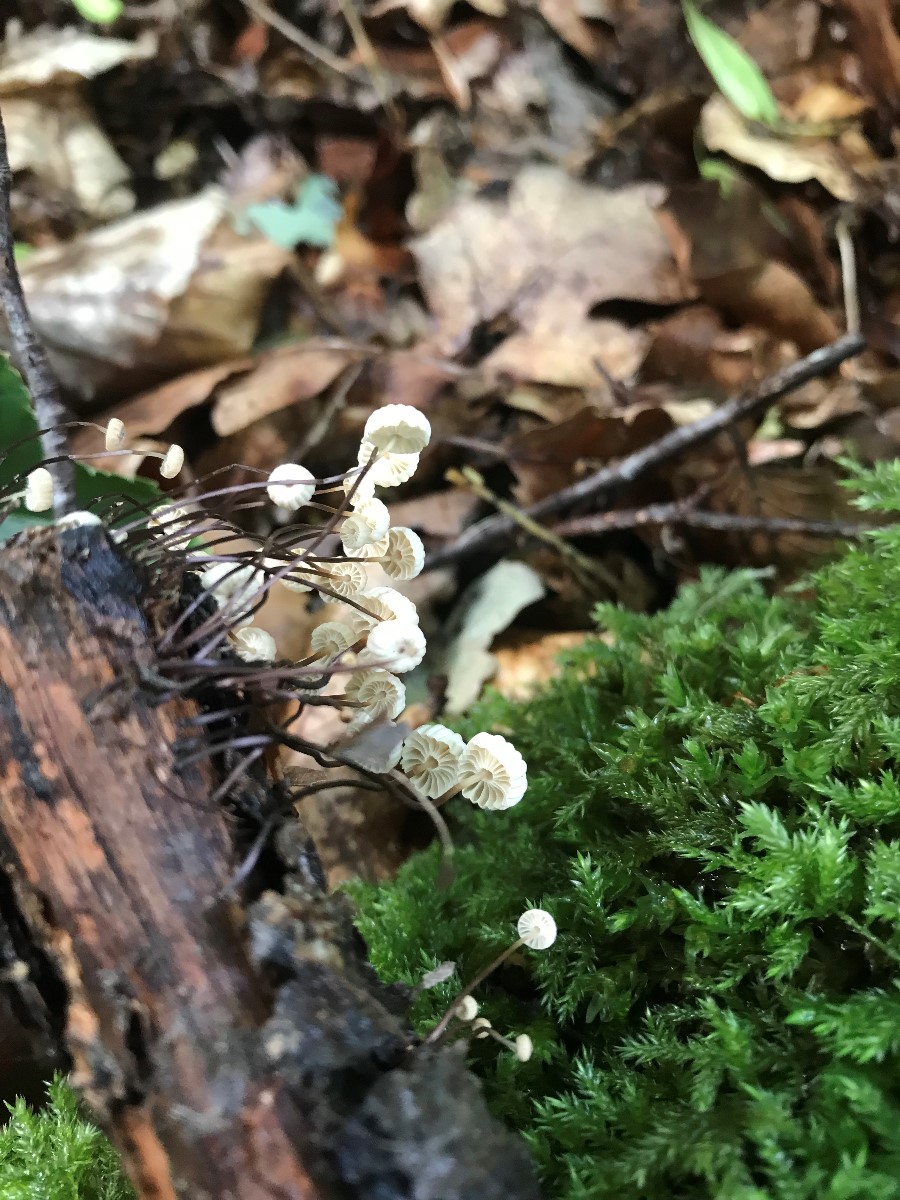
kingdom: Fungi
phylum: Basidiomycota
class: Agaricomycetes
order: Agaricales
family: Marasmiaceae
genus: Marasmius
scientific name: Marasmius rotula
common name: hjul-bruskhat
